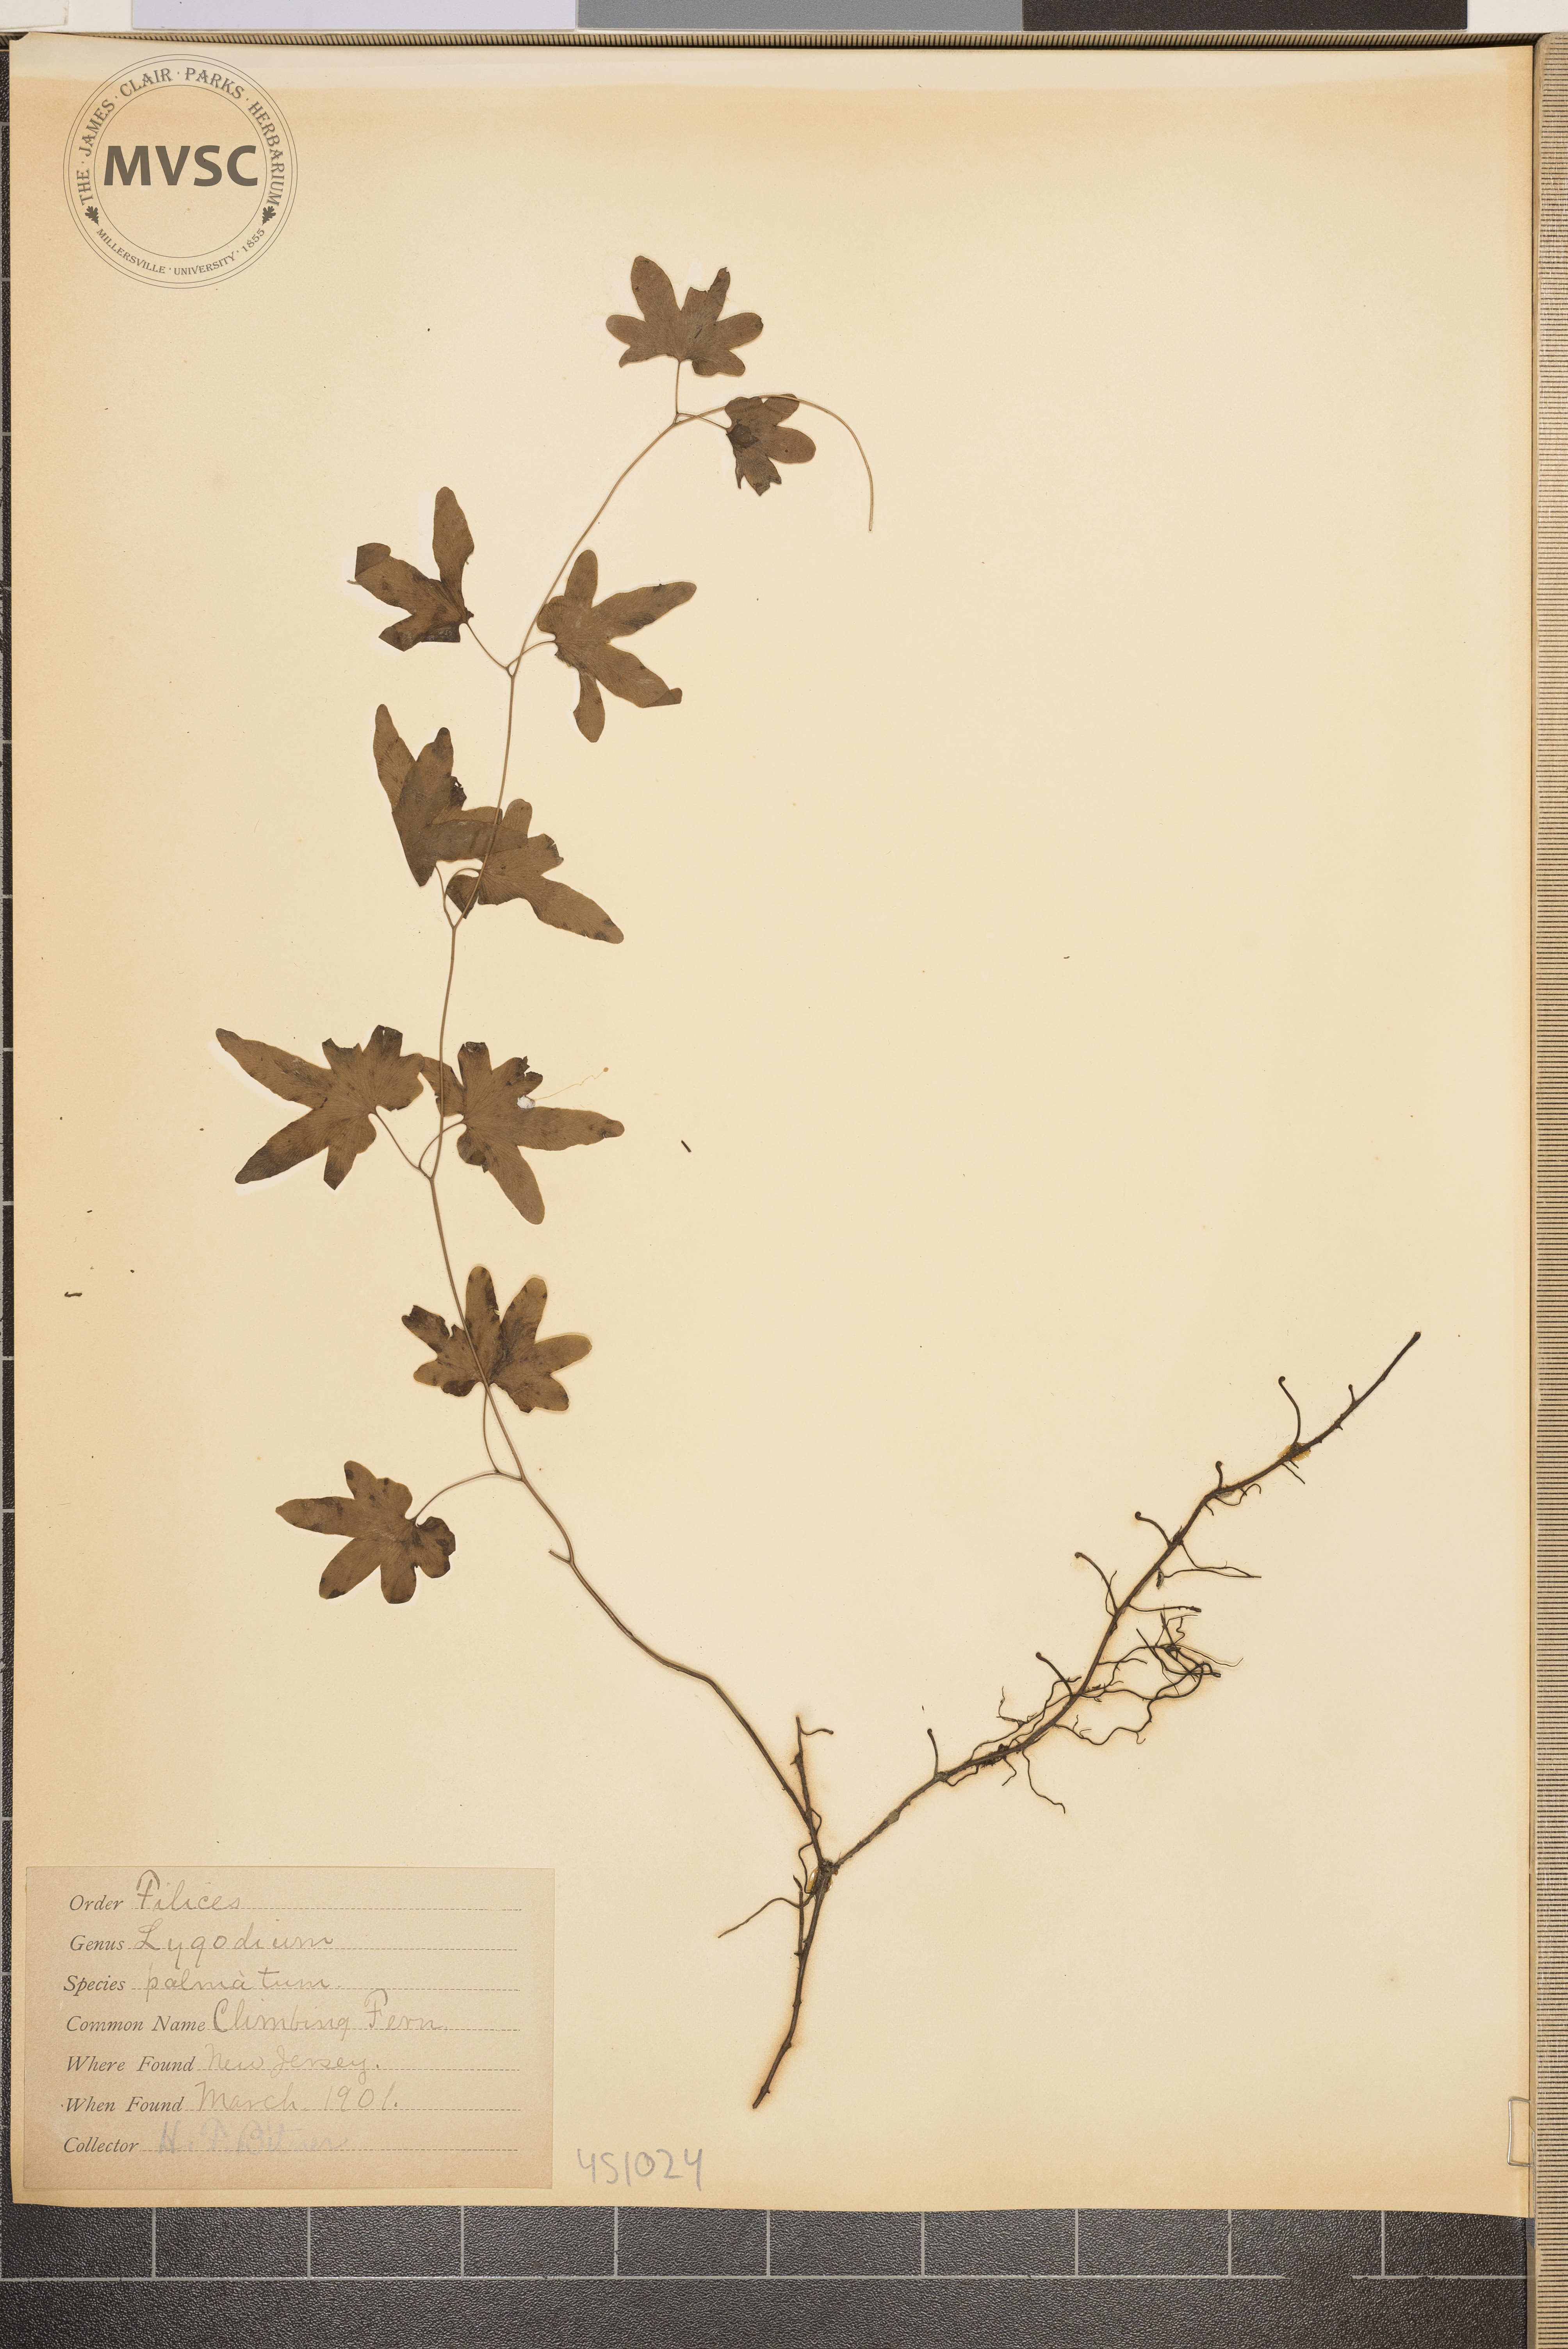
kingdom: Plantae
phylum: Tracheophyta
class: Polypodiopsida
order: Schizaeales
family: Lygodiaceae
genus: Lygodium
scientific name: Lygodium palmatum
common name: Climbing fern
